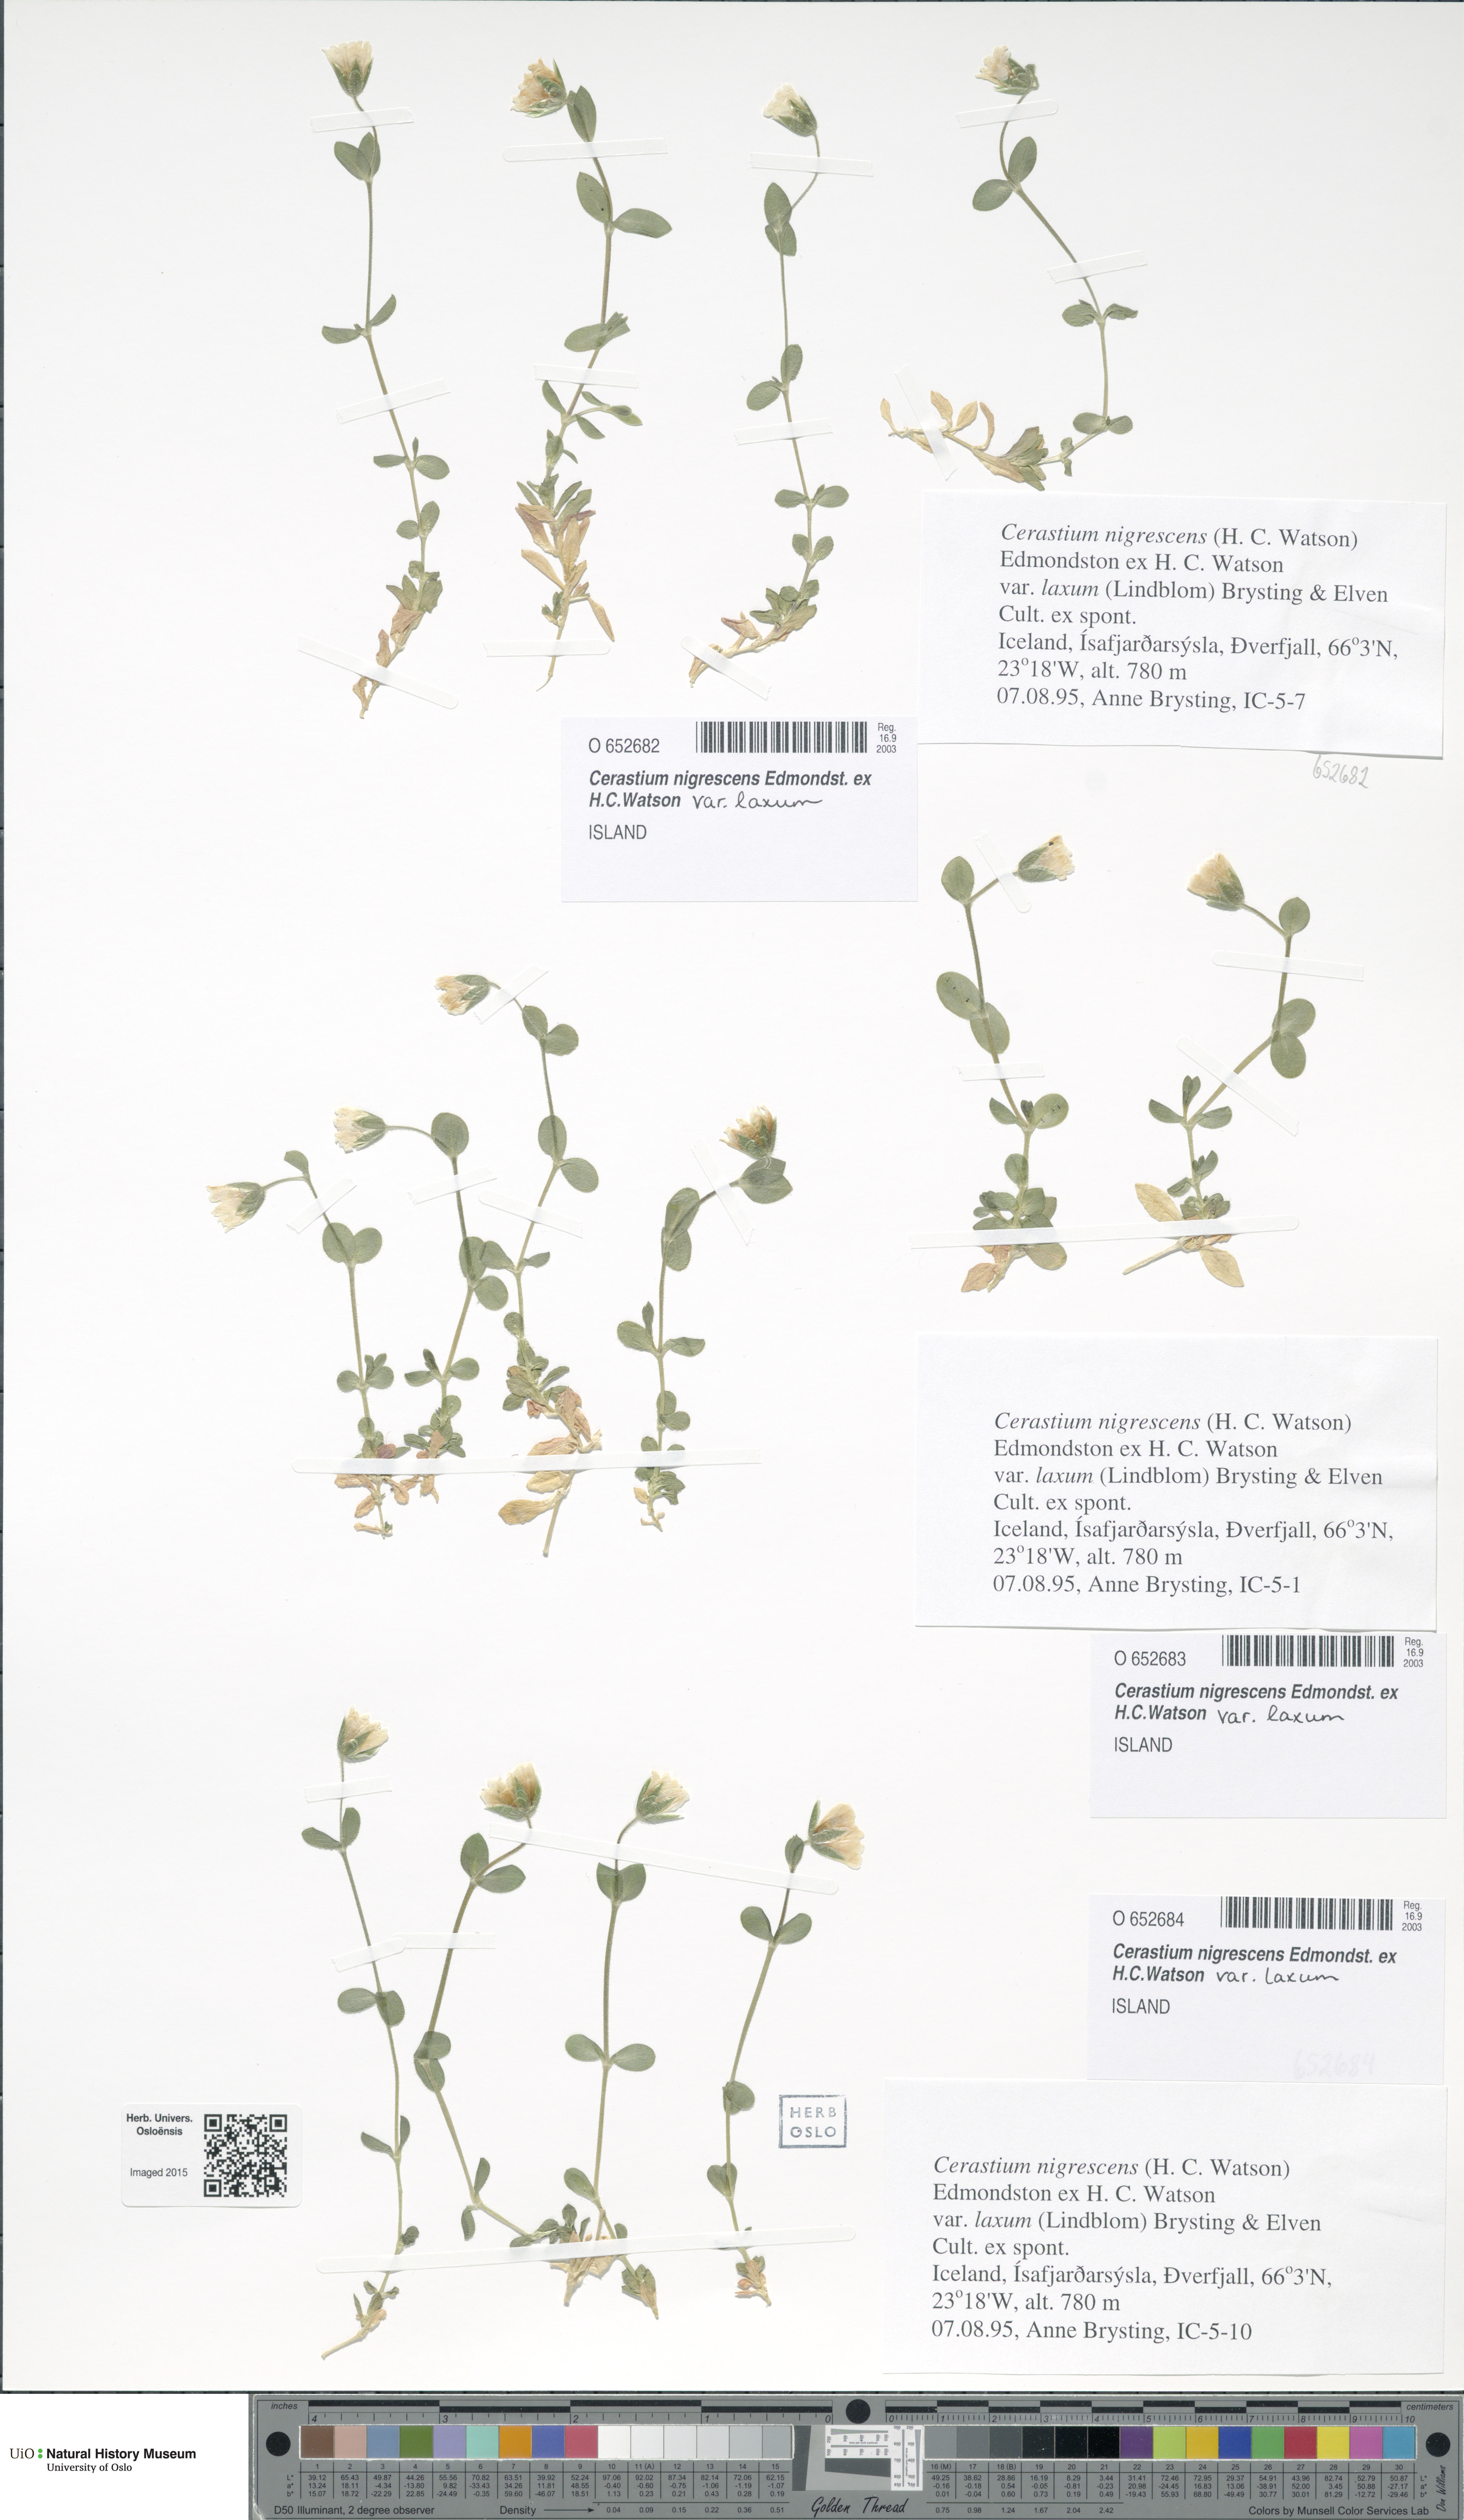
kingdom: Plantae
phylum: Tracheophyta
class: Magnoliopsida
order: Caryophyllales
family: Caryophyllaceae
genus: Cerastium
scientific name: Cerastium nigrescens
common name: Shetland mouse-ear
